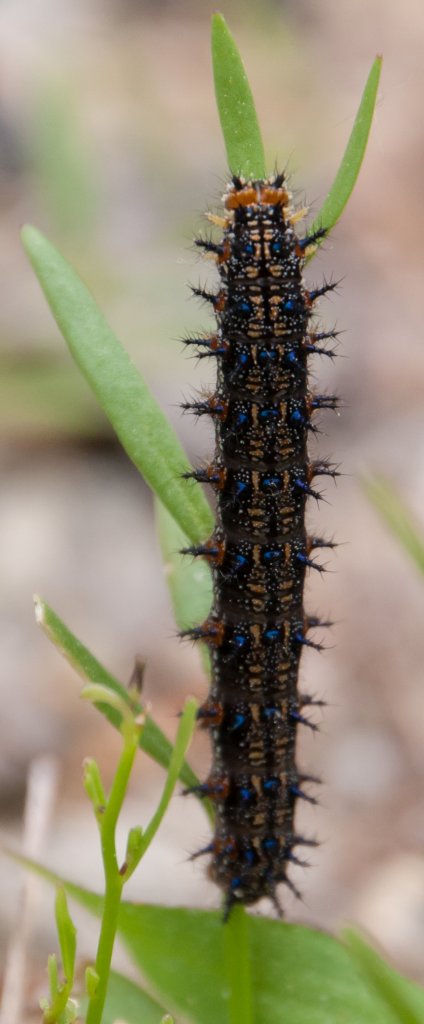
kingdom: Animalia
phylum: Arthropoda
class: Insecta
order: Lepidoptera
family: Nymphalidae
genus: Junonia
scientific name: Junonia coenia
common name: Common Buckeye
